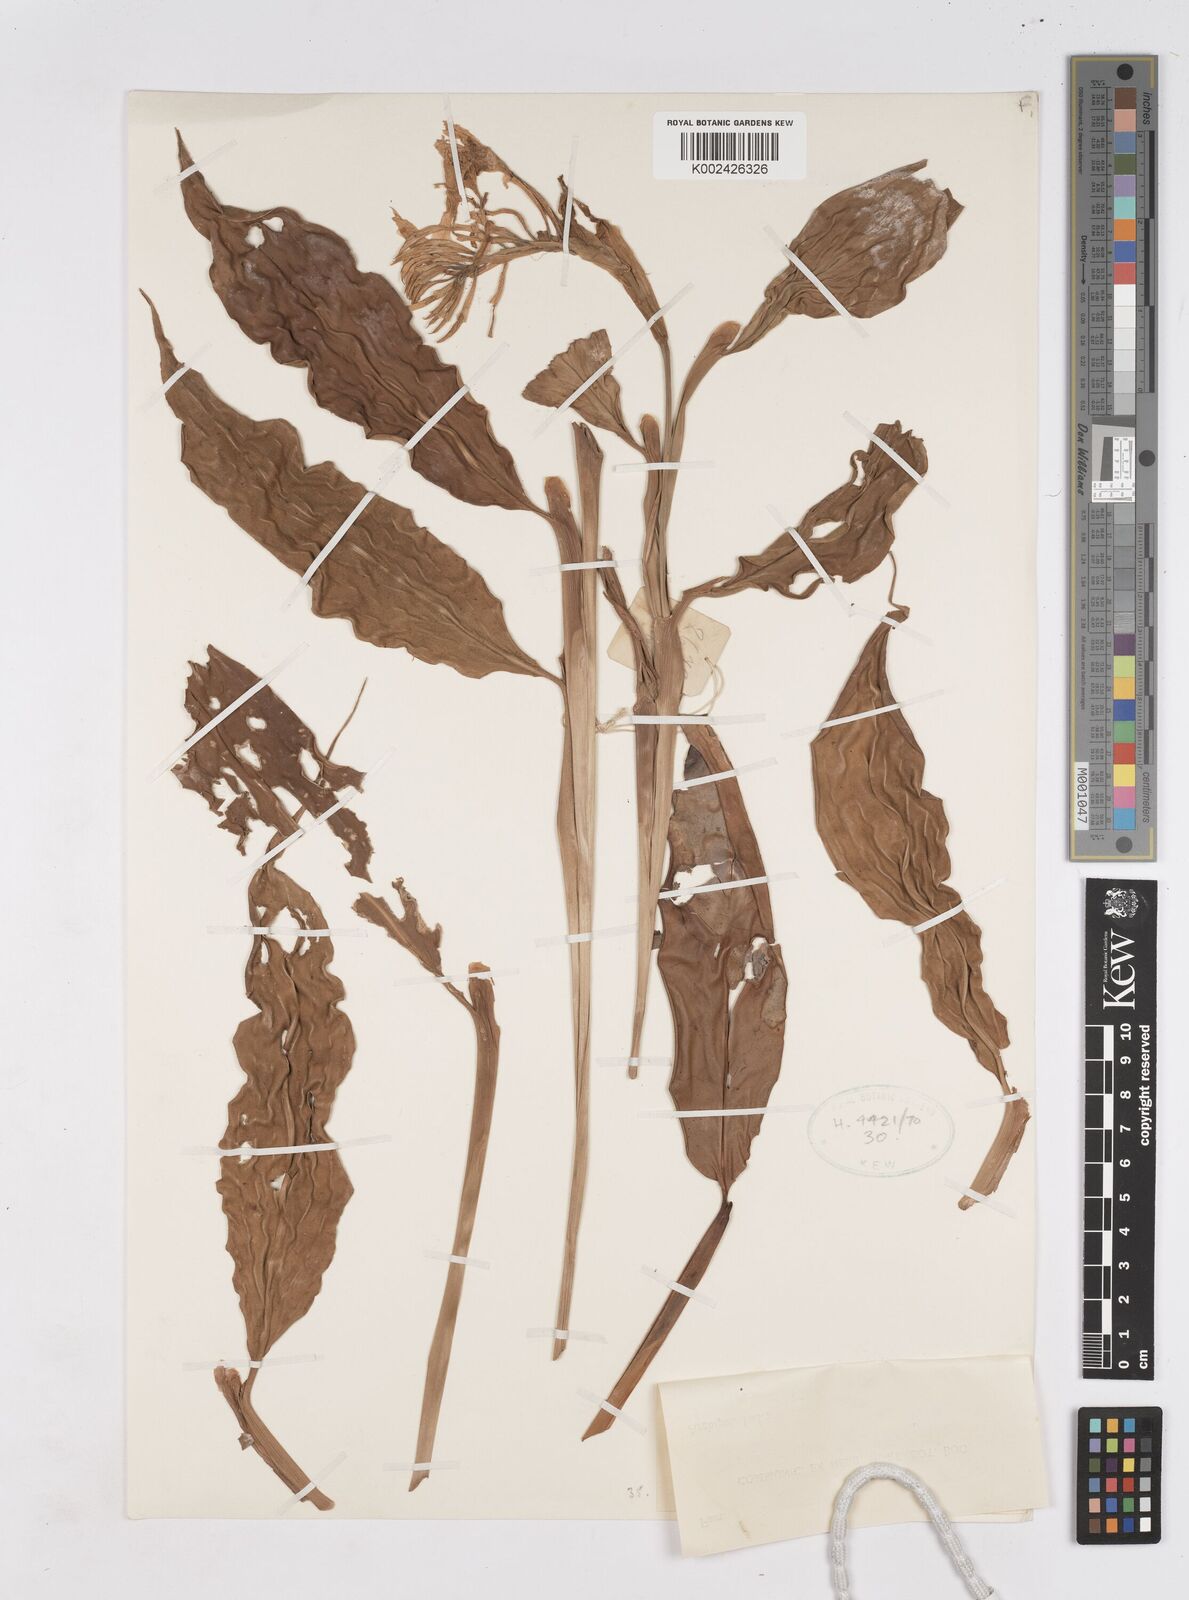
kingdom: Plantae
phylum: Tracheophyta
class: Liliopsida
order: Zingiberales
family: Zingiberaceae
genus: Burbidgea
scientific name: Burbidgea stenantha
